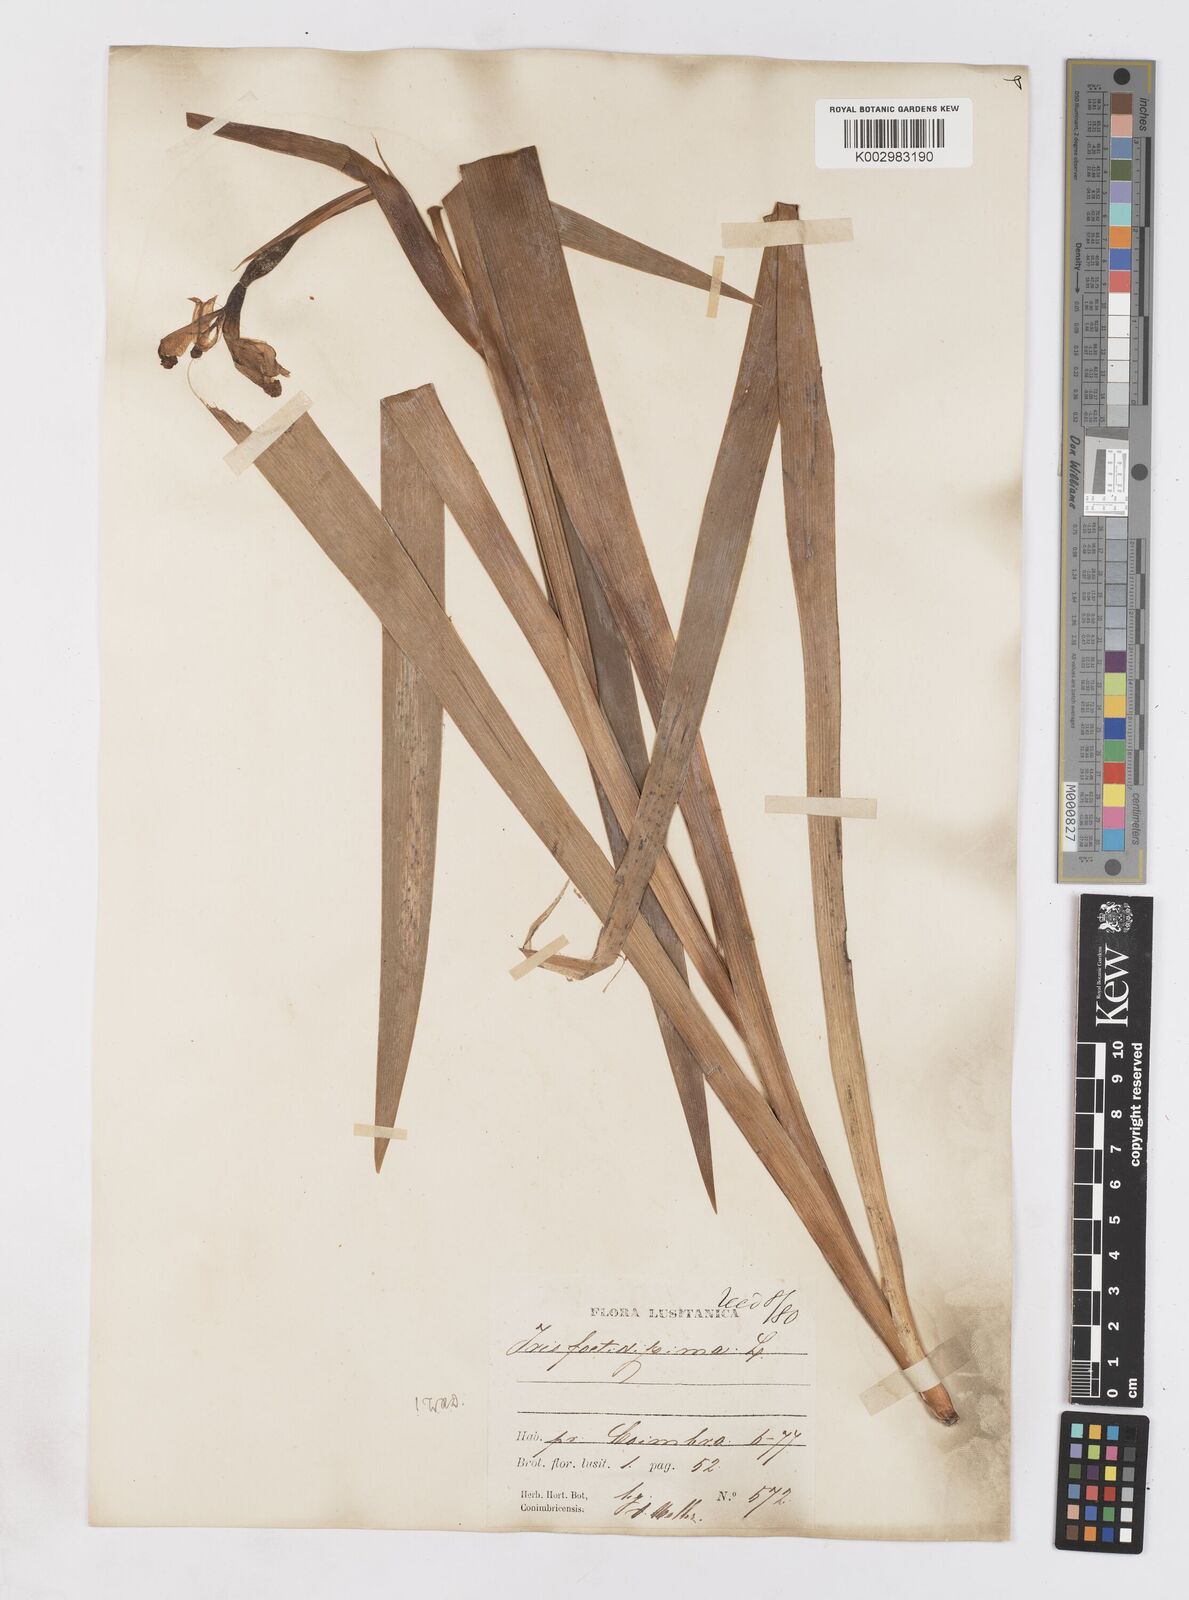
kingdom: Plantae
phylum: Tracheophyta
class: Liliopsida
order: Asparagales
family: Iridaceae
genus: Iris
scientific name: Iris foetidissima
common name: Stinking iris
